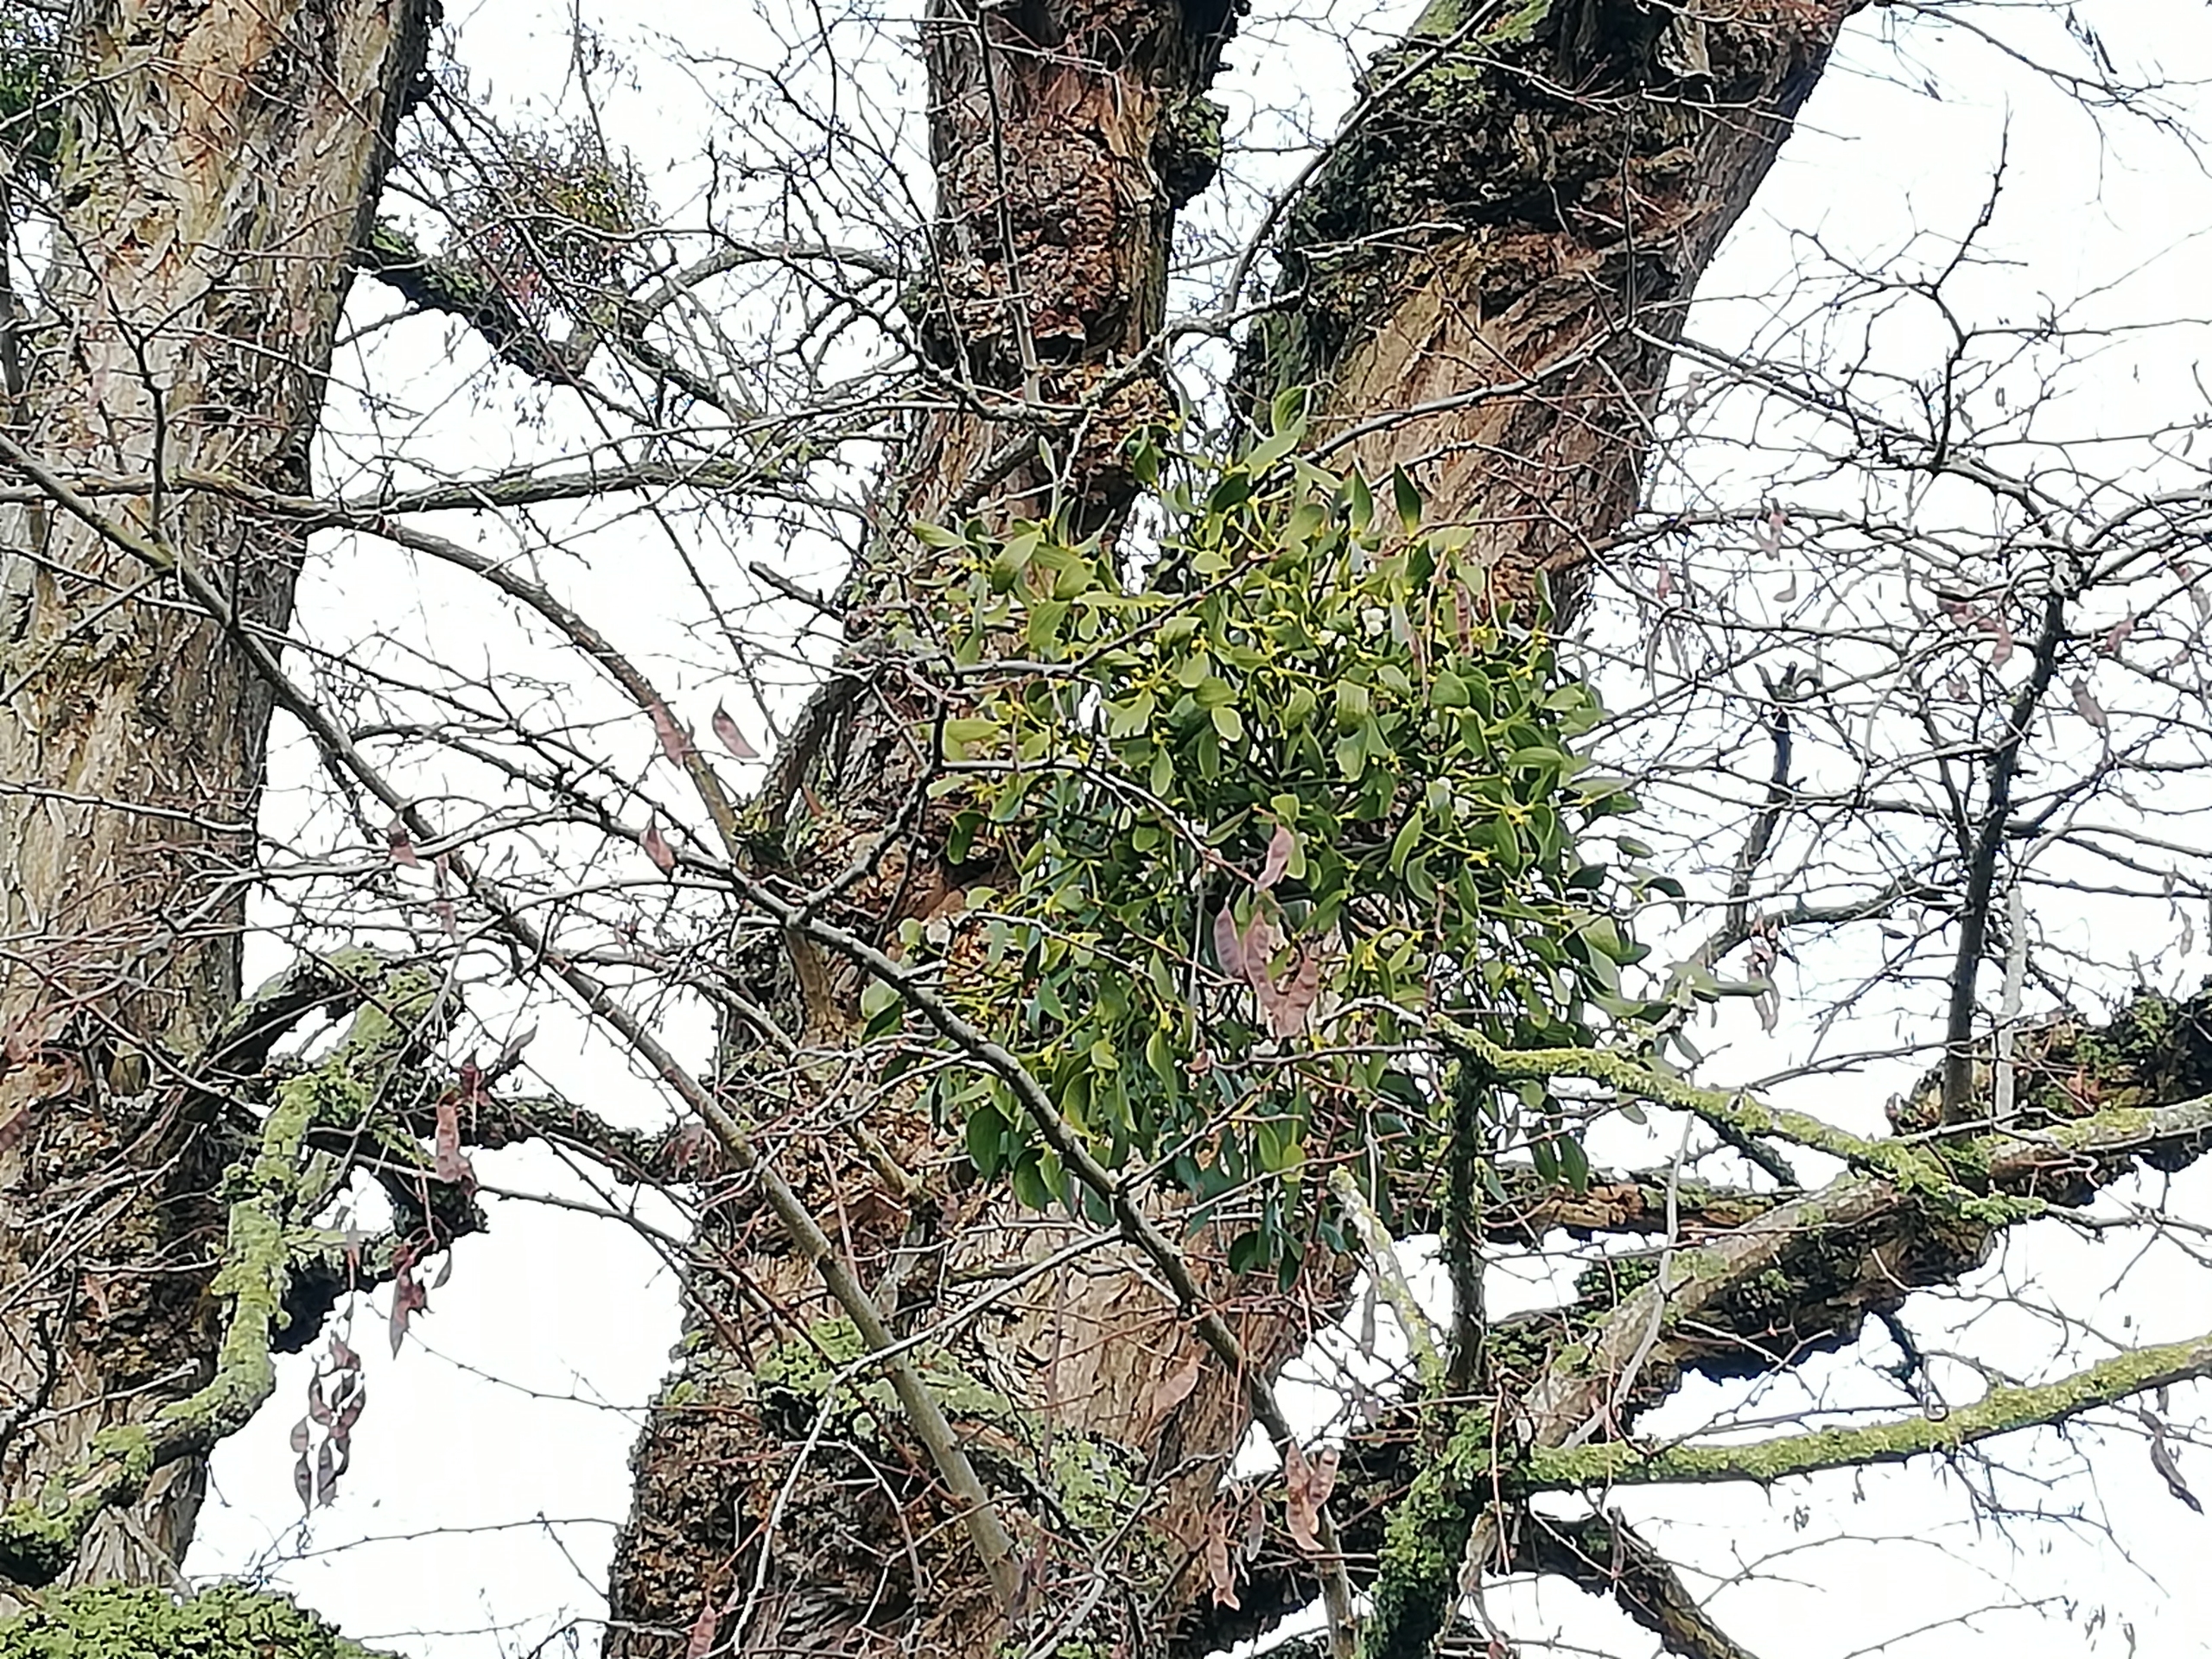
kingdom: Plantae
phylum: Tracheophyta
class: Magnoliopsida
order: Santalales
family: Viscaceae
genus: Viscum
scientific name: Viscum album
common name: Mistelten
